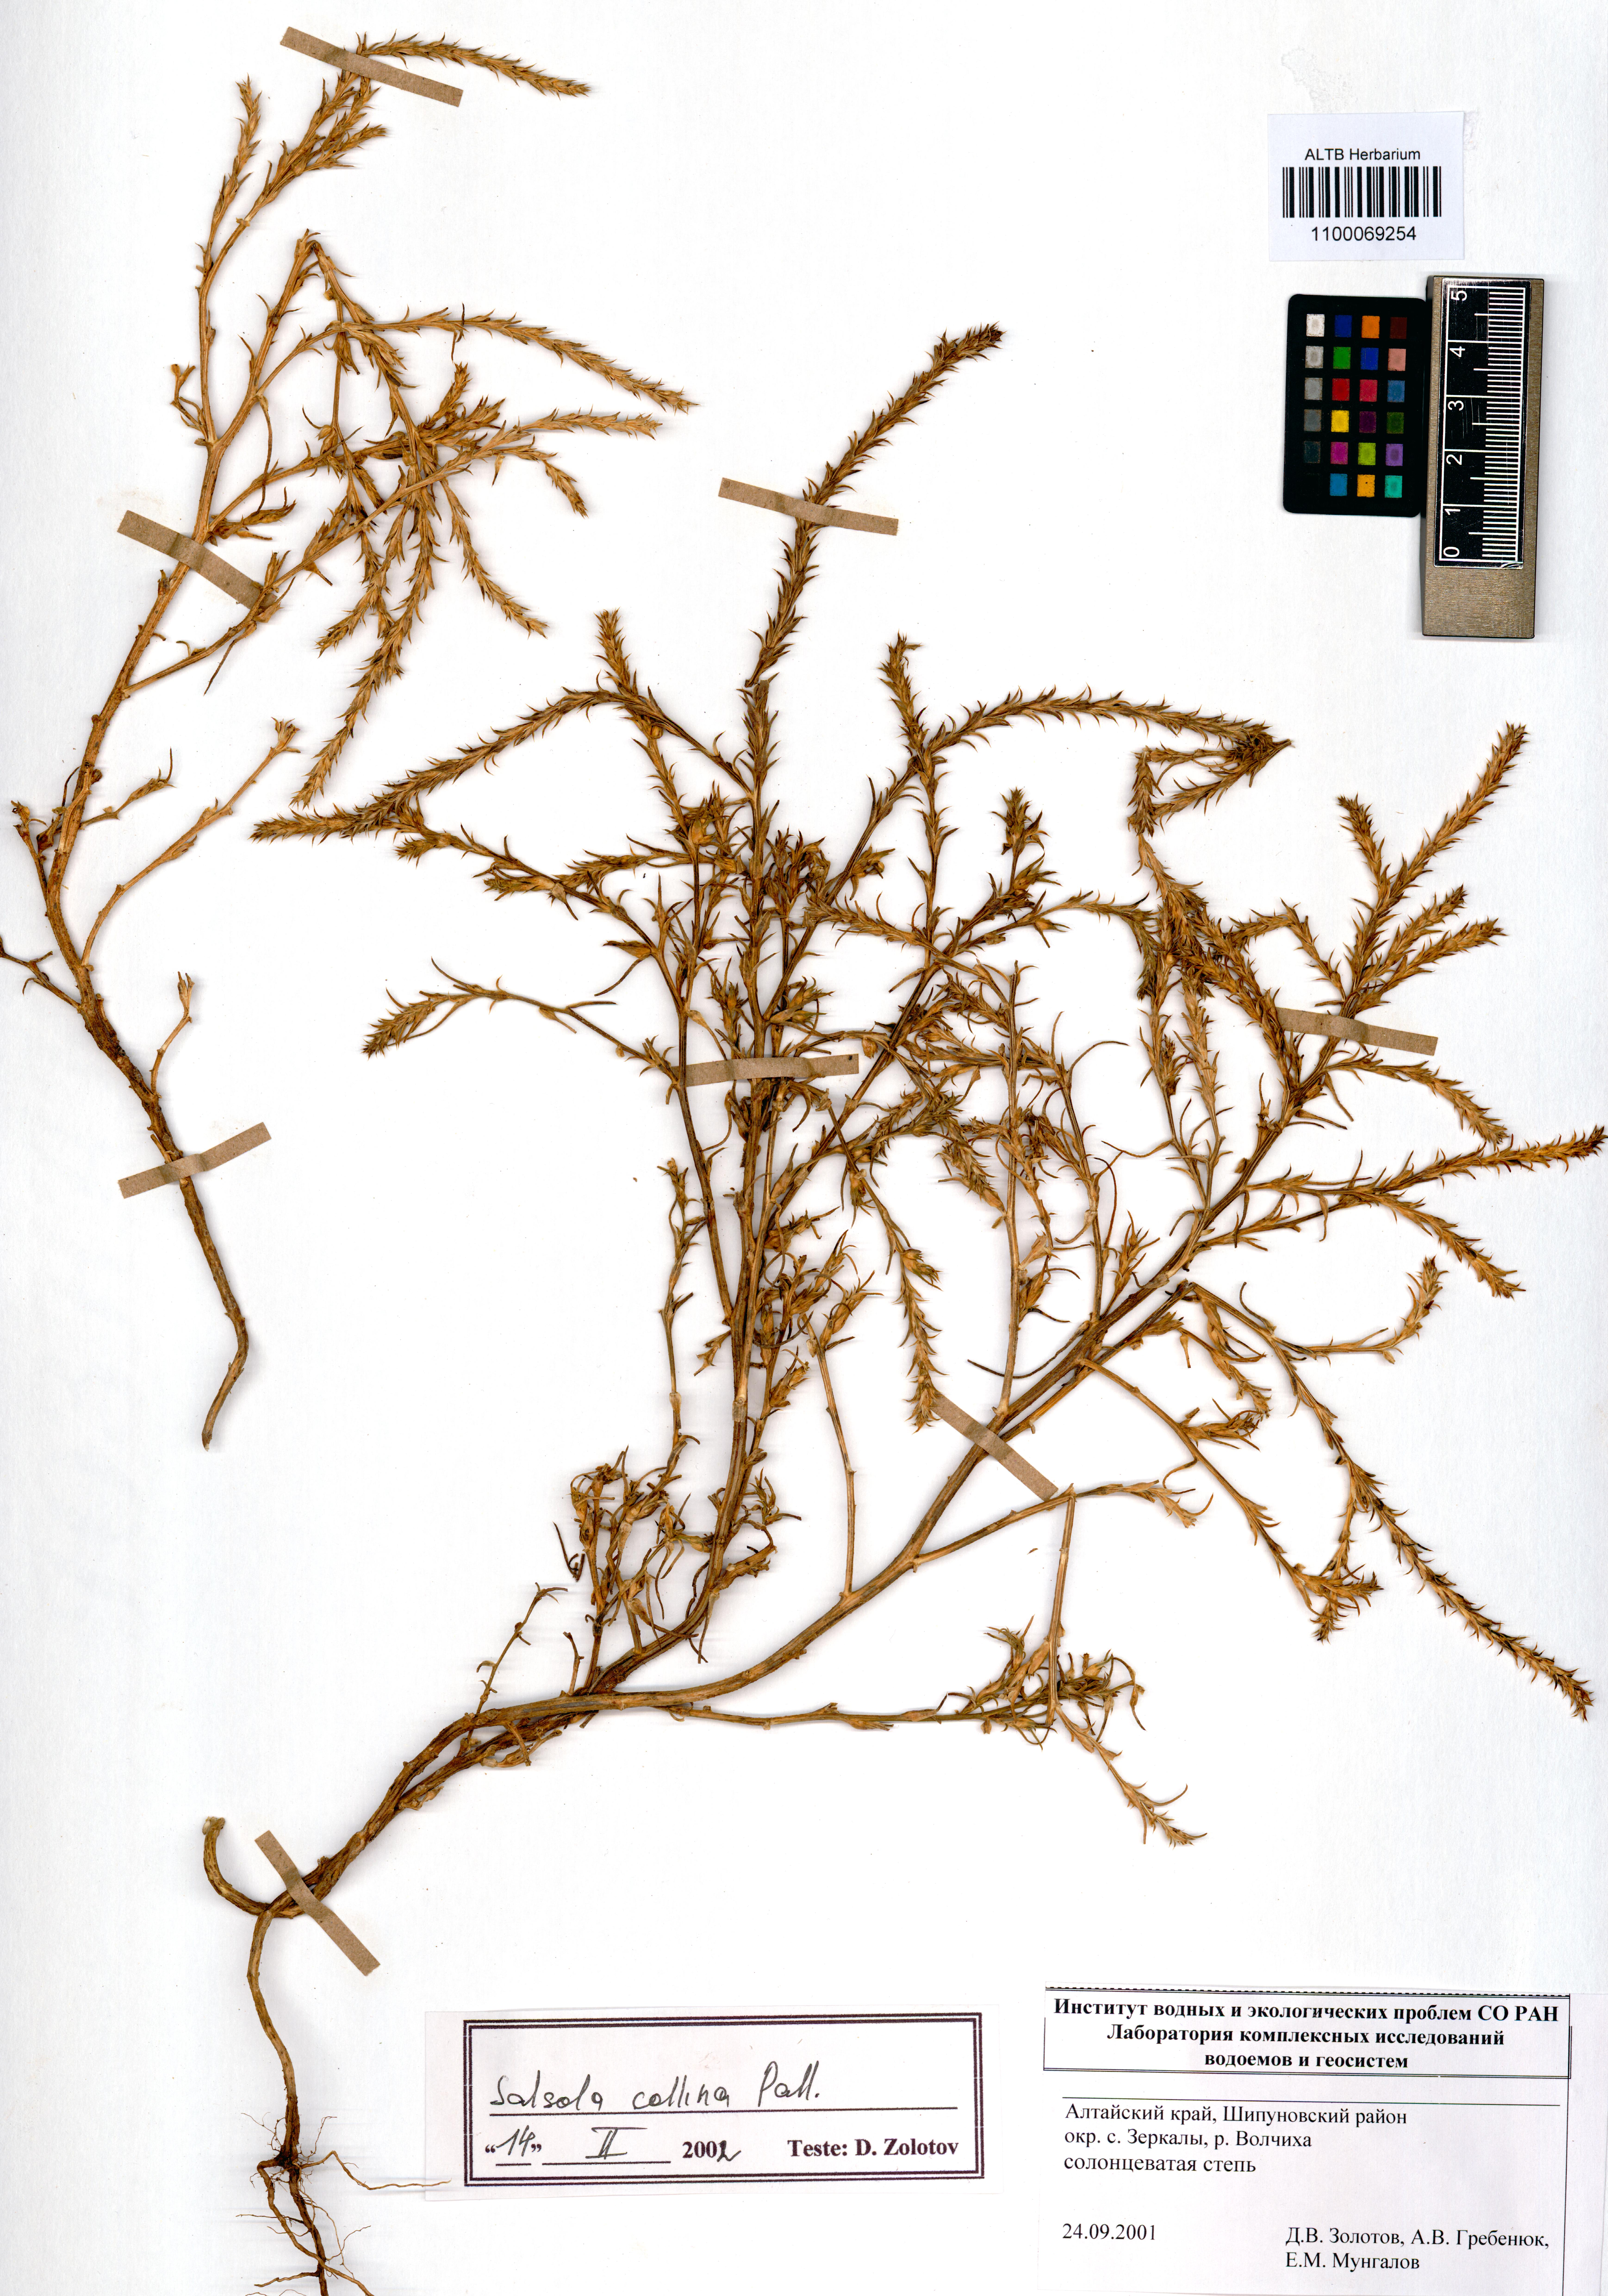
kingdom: Plantae
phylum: Tracheophyta
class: Magnoliopsida
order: Caryophyllales
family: Amaranthaceae
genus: Salsola
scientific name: Salsola collina
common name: Tumbleweed
